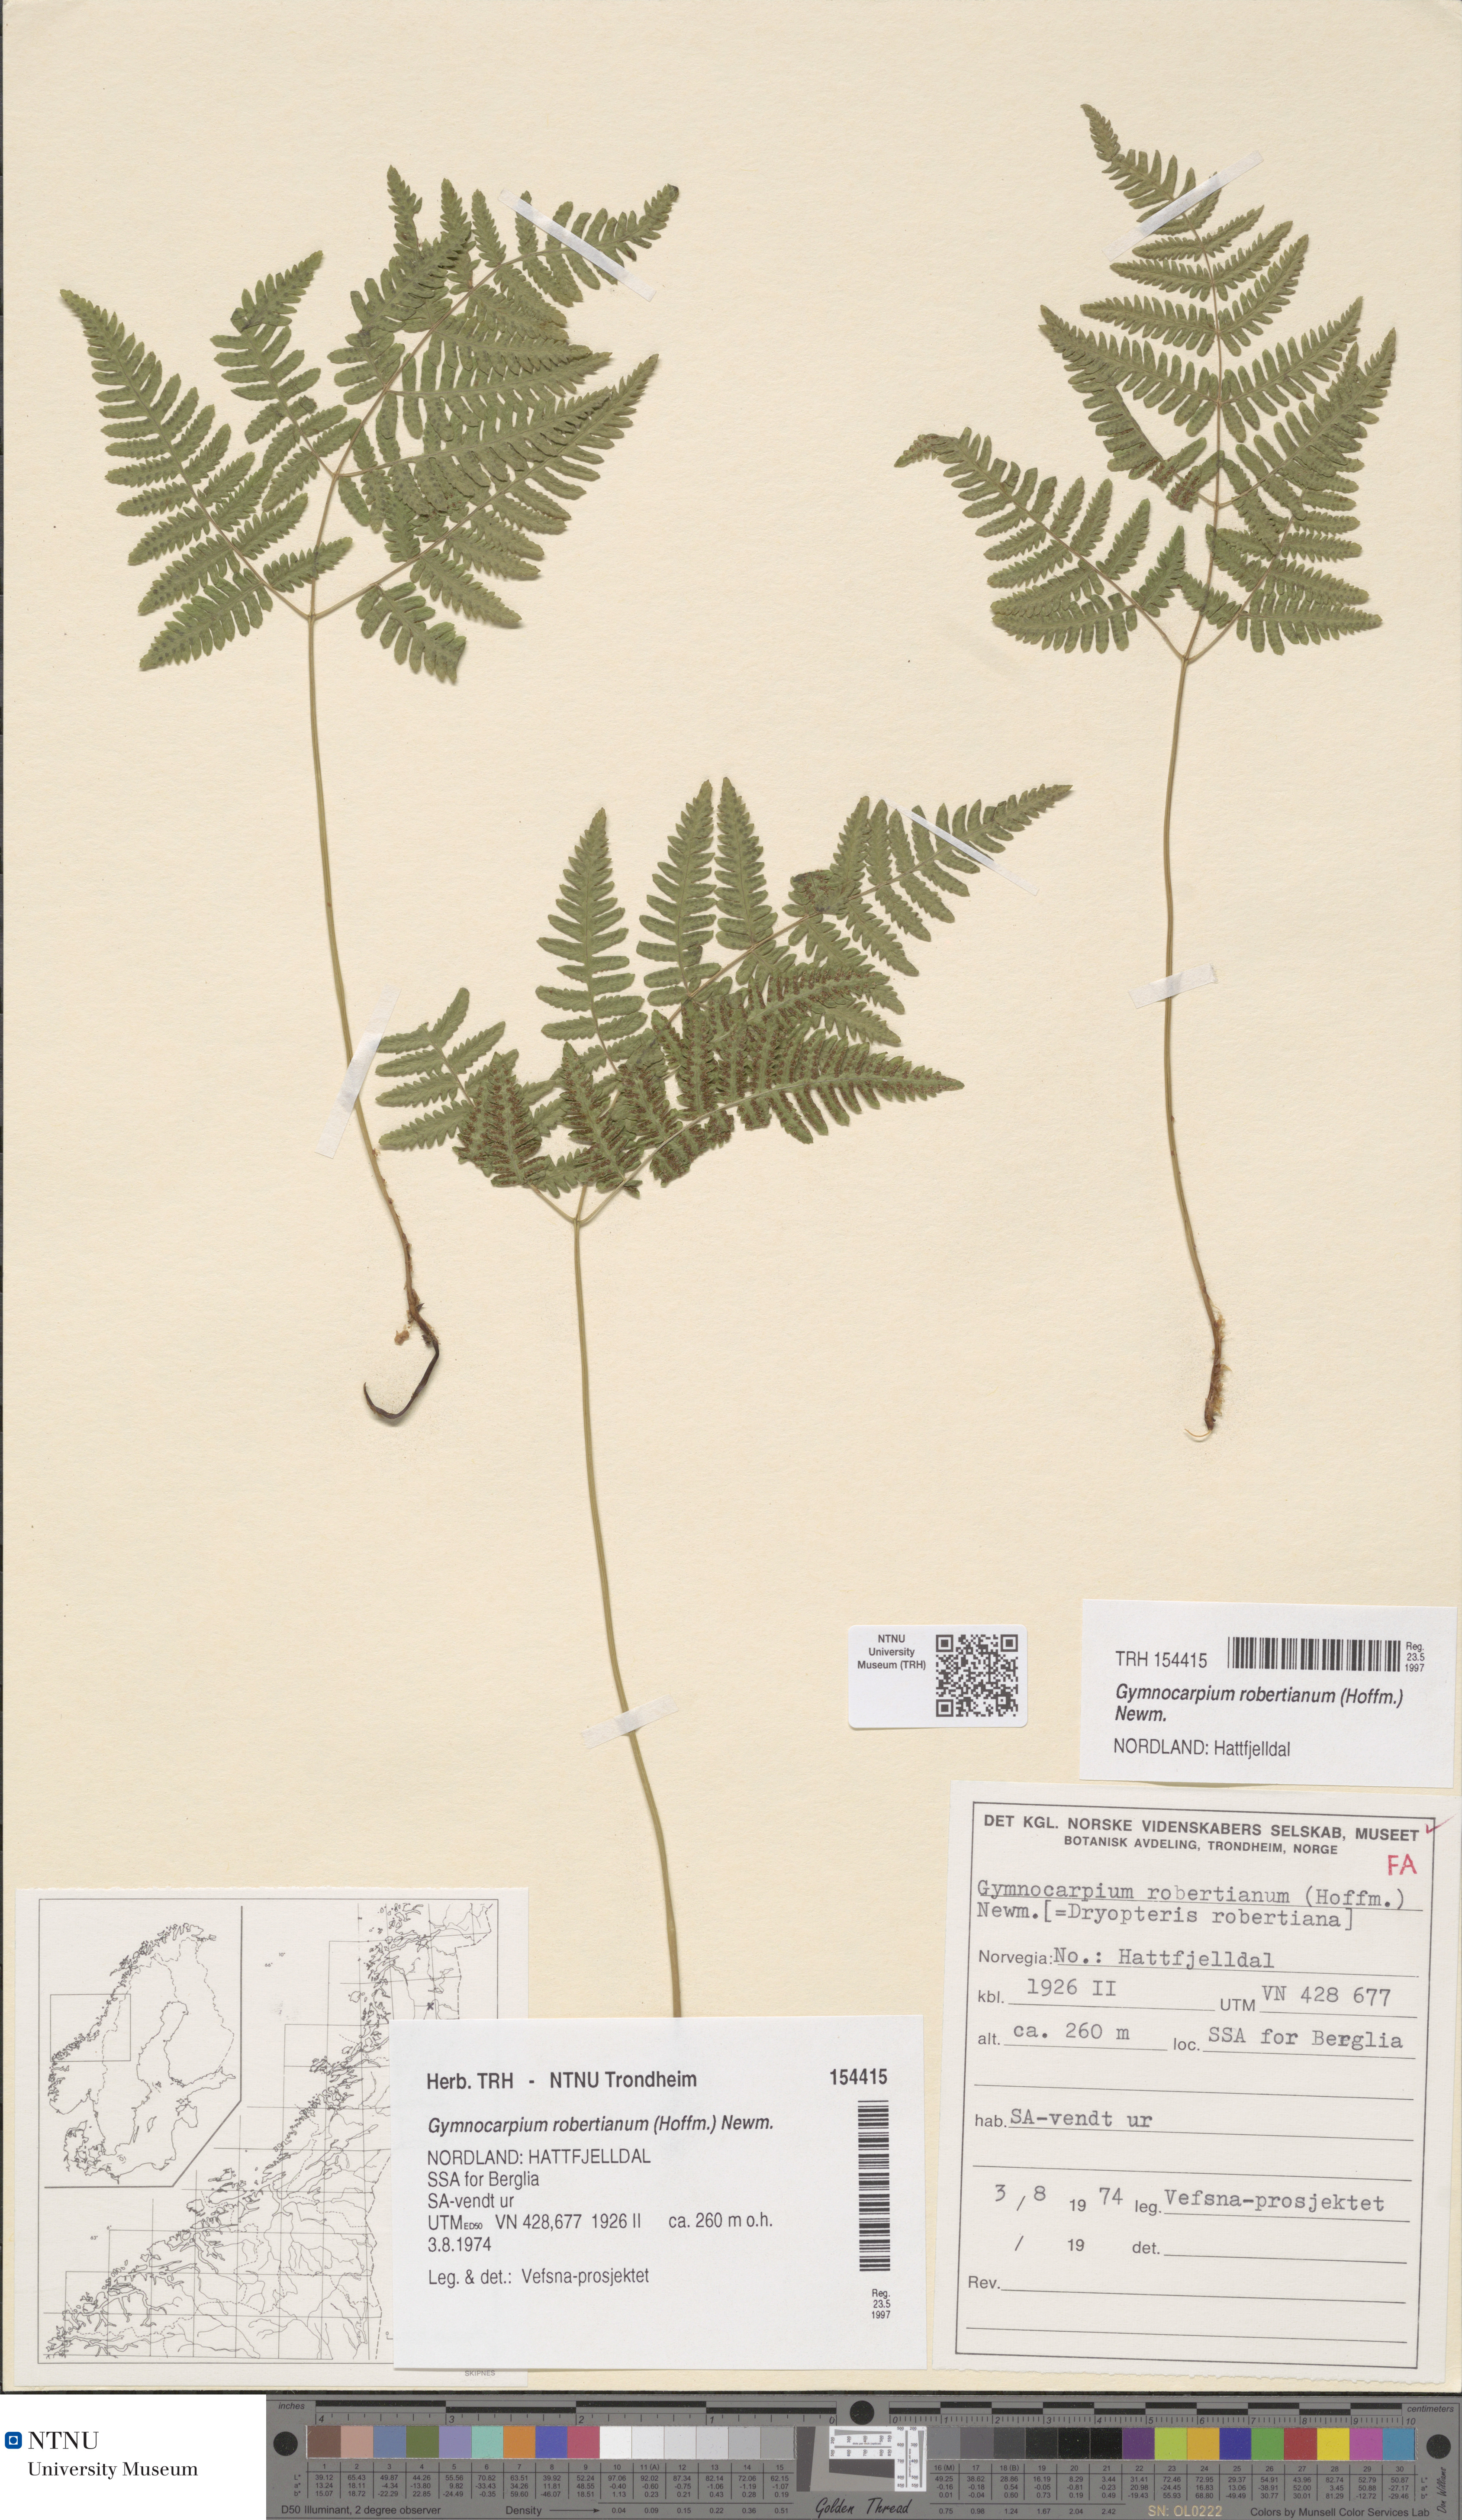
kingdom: Plantae
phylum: Tracheophyta
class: Polypodiopsida
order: Polypodiales
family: Cystopteridaceae
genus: Gymnocarpium
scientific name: Gymnocarpium robertianum
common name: Limestone fern
